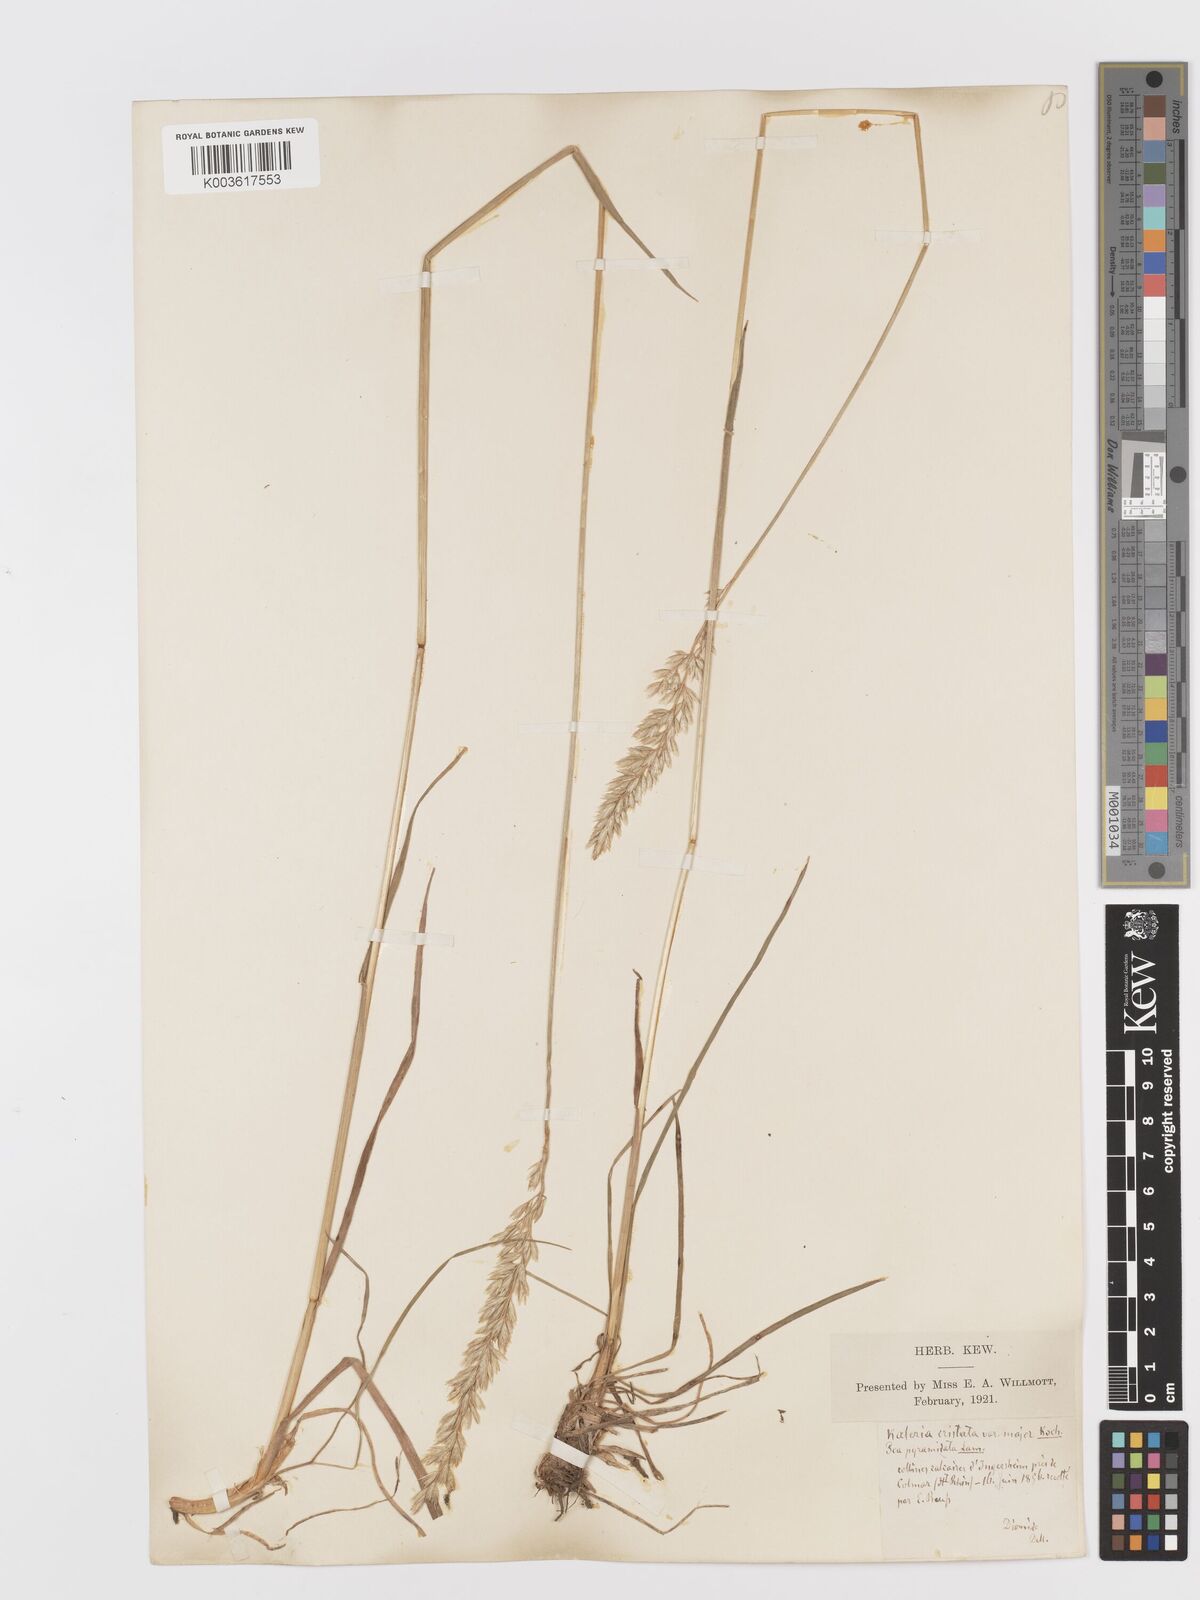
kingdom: Plantae
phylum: Tracheophyta
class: Liliopsida
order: Poales
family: Poaceae
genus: Koeleria
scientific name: Koeleria
